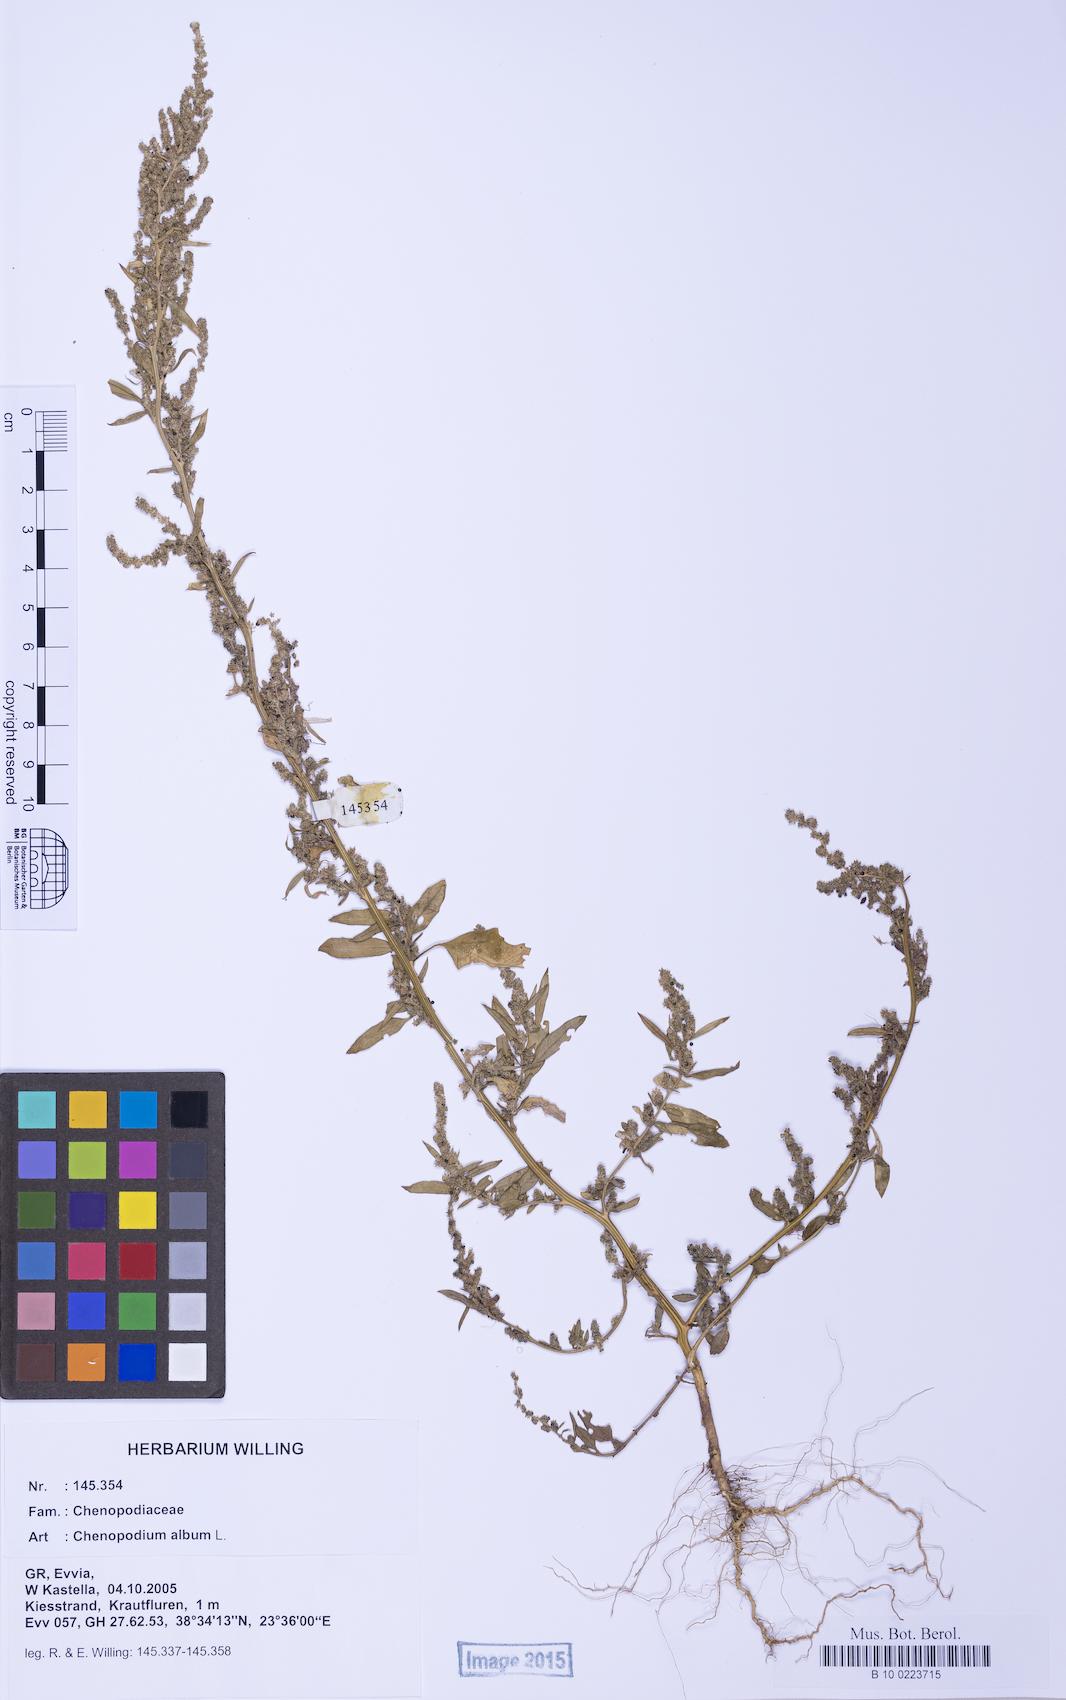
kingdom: Plantae
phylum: Tracheophyta
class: Magnoliopsida
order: Caryophyllales
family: Amaranthaceae
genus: Chenopodium
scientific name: Chenopodium album
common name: Fat-hen
